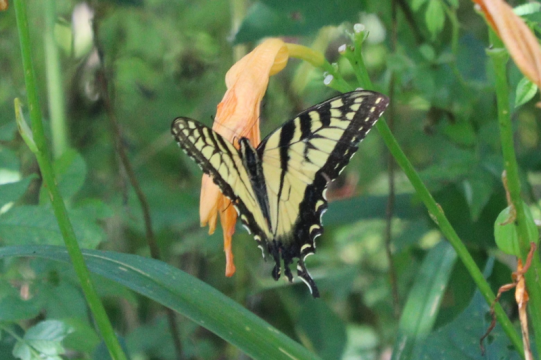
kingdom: Animalia
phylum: Arthropoda
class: Insecta
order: Lepidoptera
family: Papilionidae
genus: Pterourus
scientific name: Pterourus
